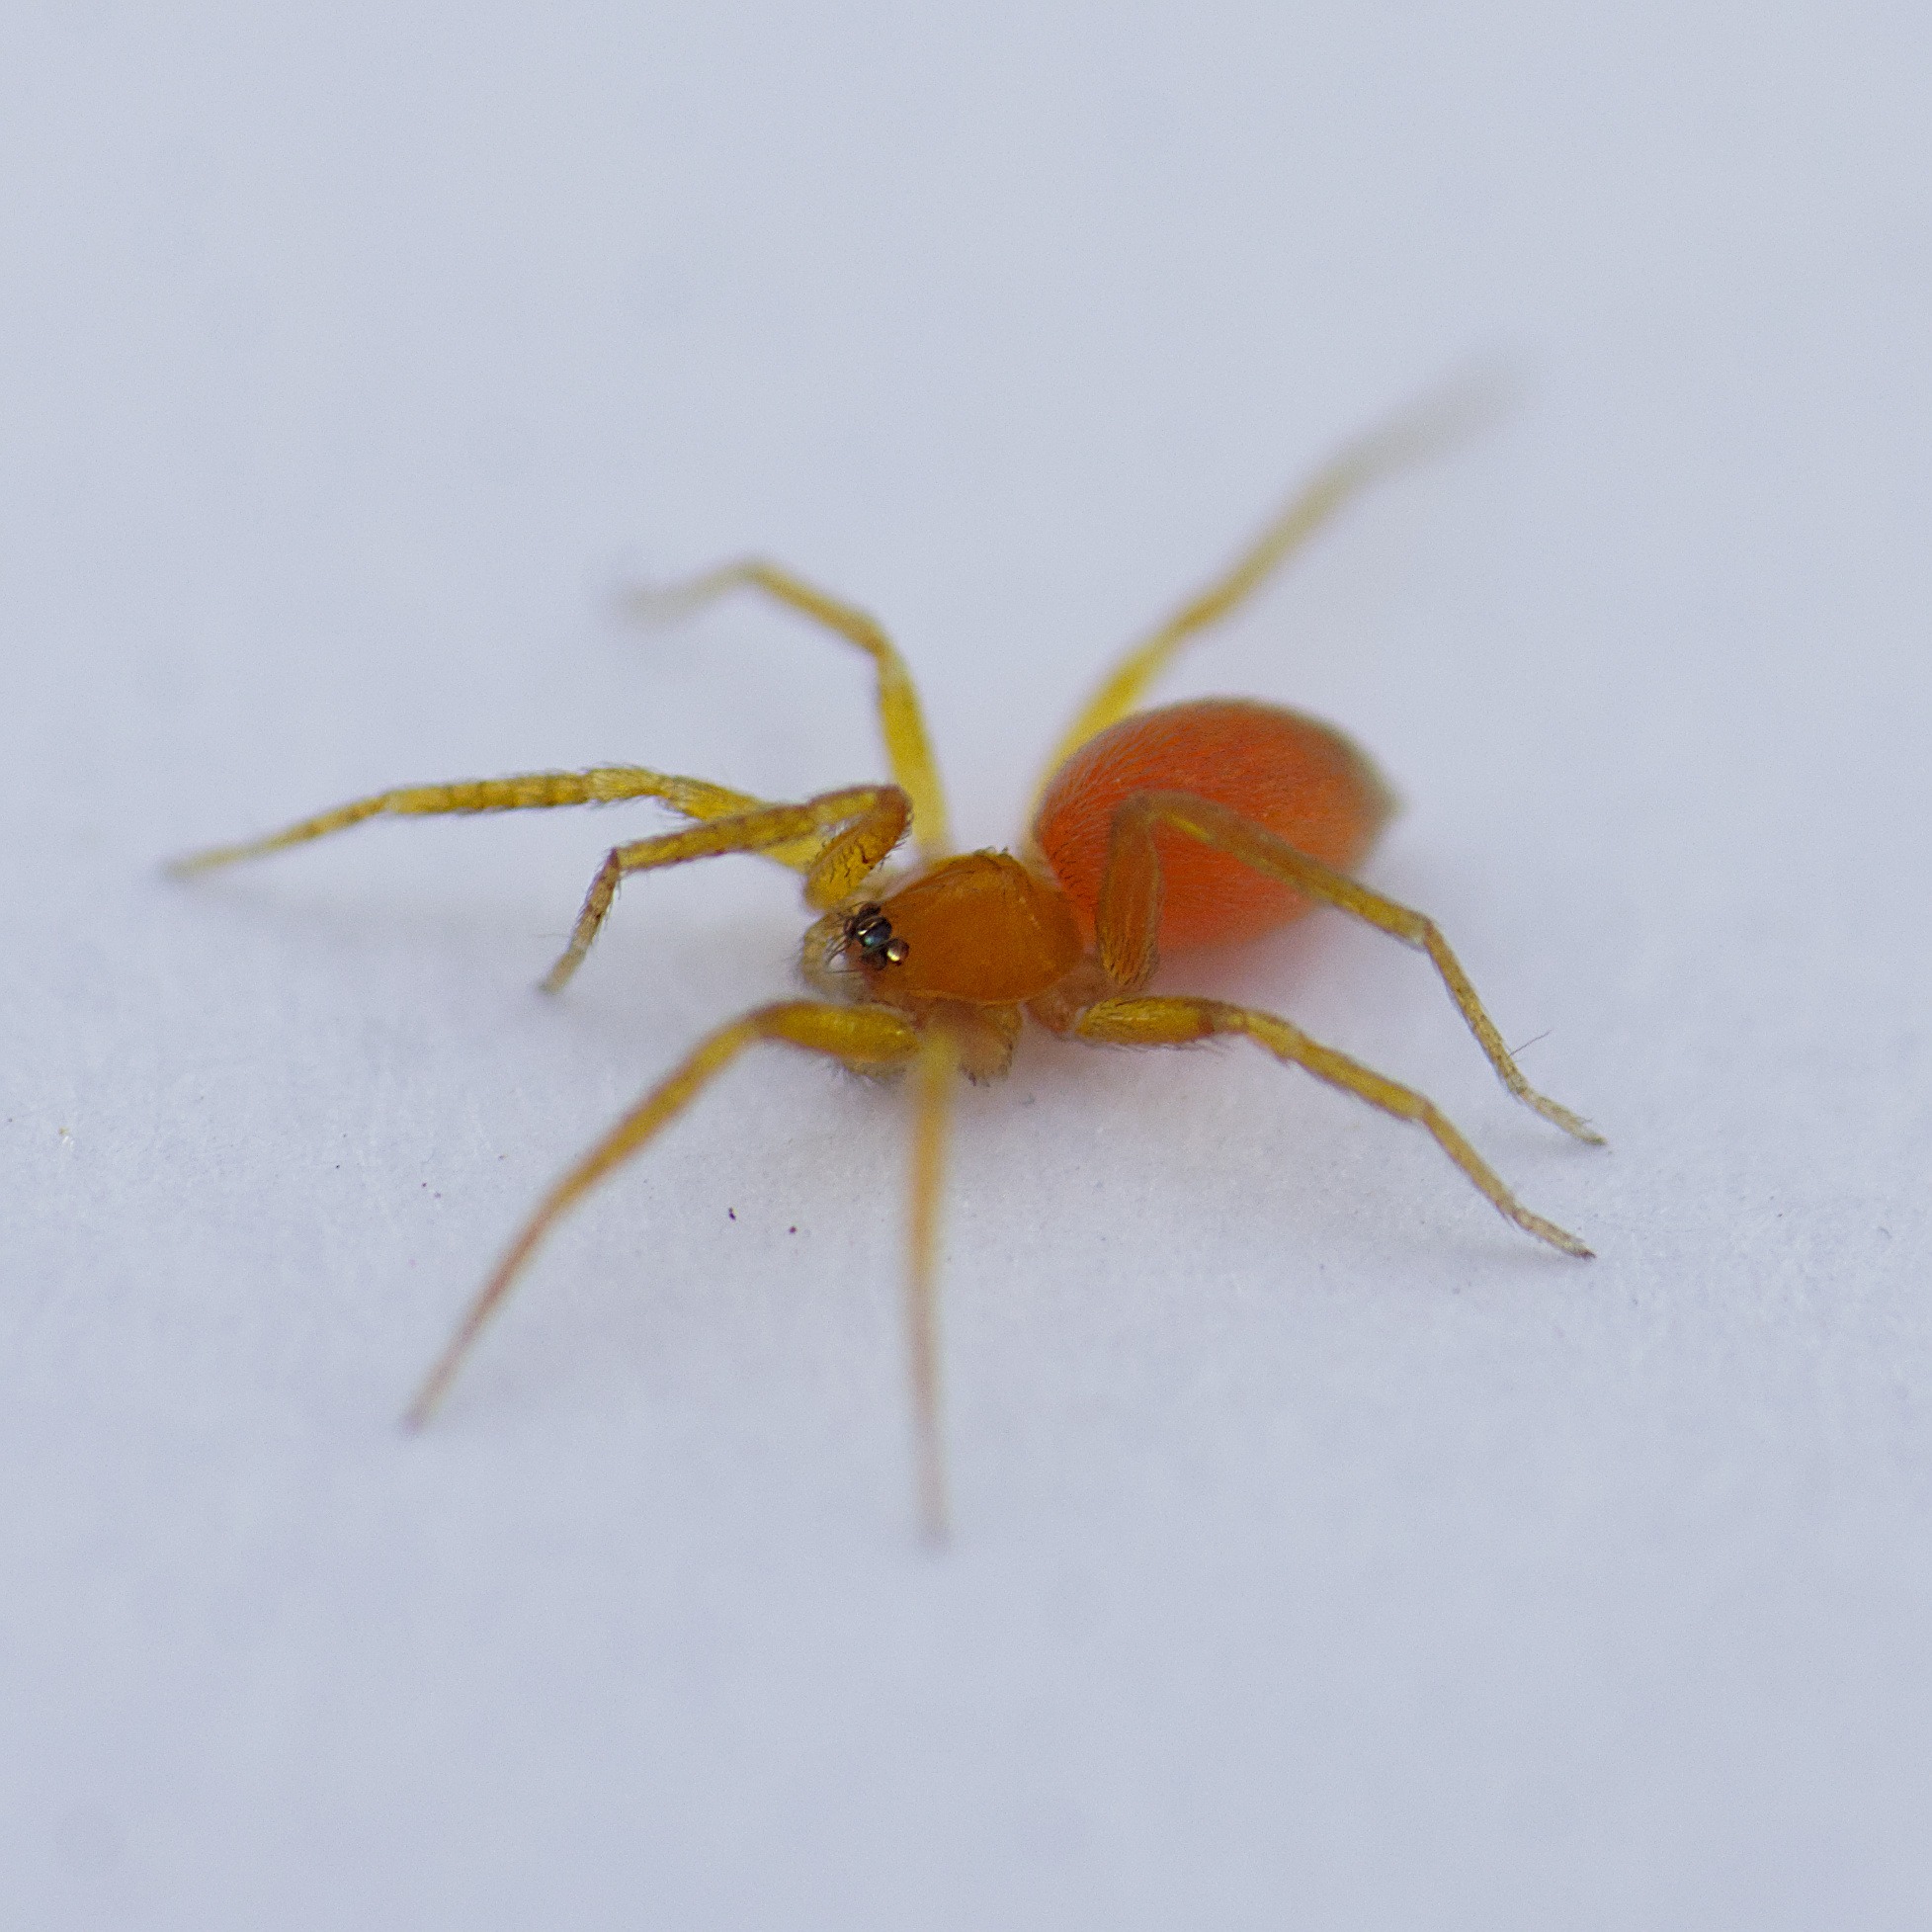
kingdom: Animalia
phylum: Arthropoda
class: Arachnida
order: Araneae
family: Oonopidae
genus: Oonops
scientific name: Oonops domesticus
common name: Rød vægjæger
